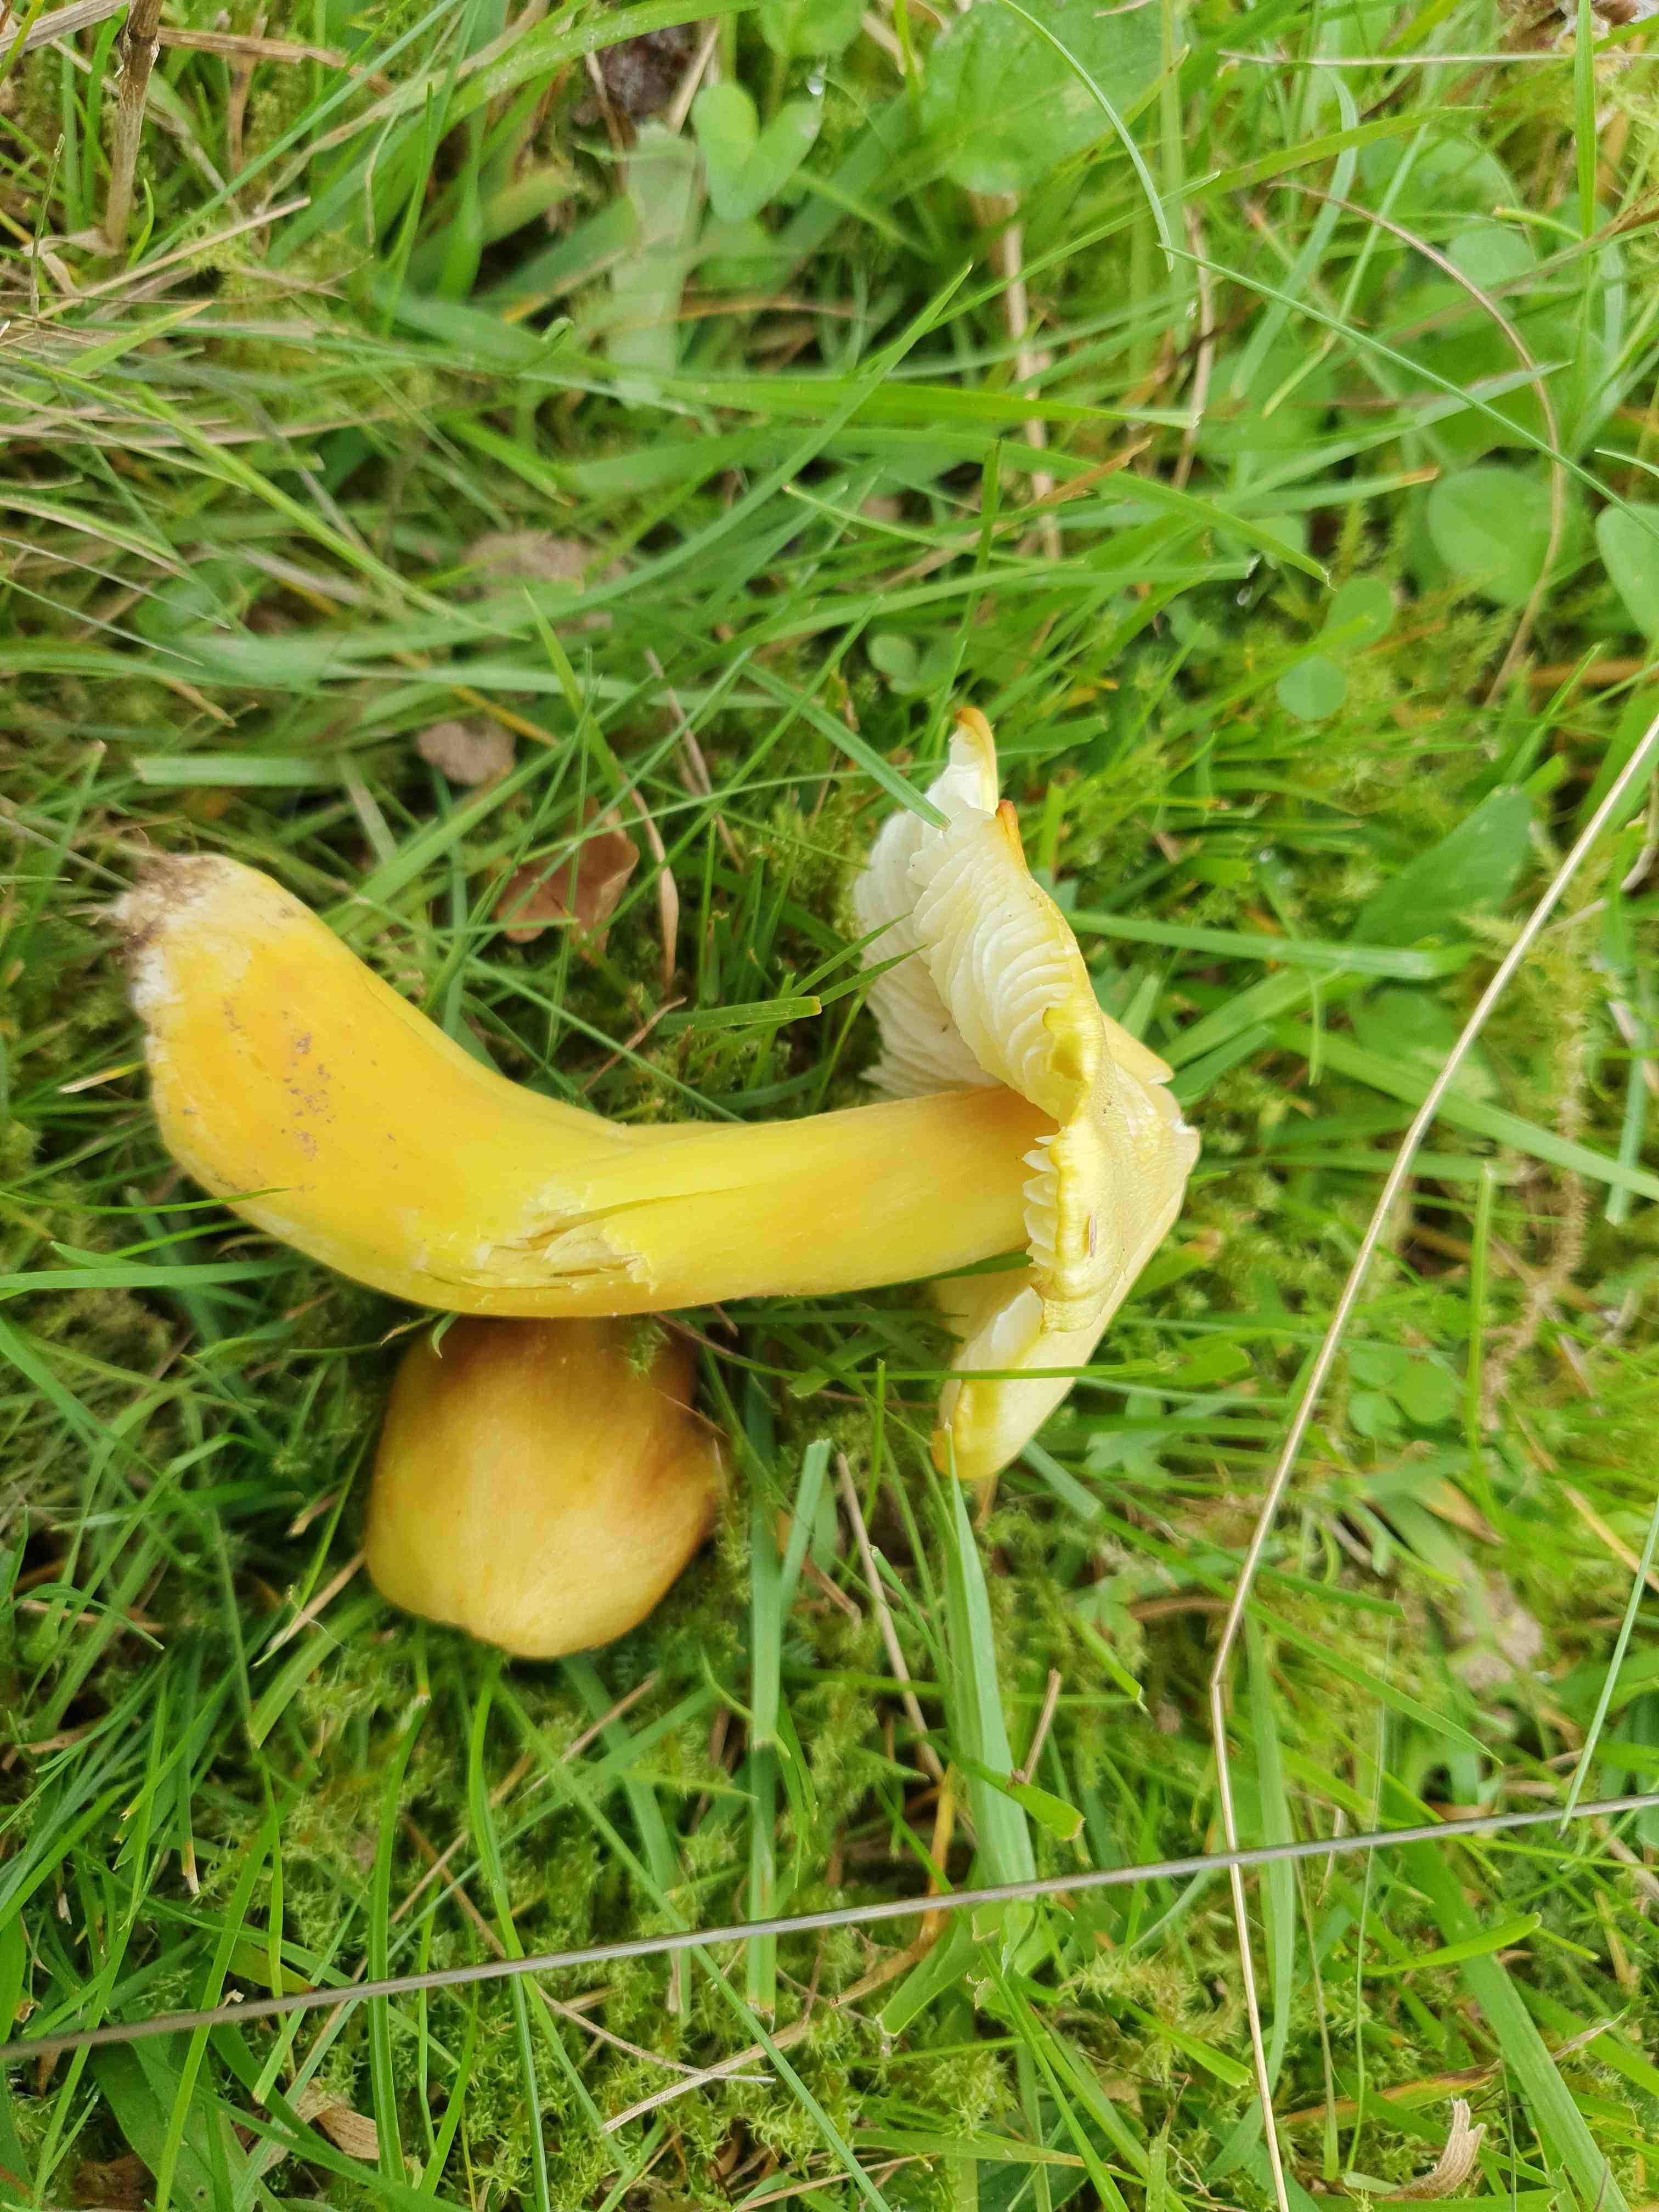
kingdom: Fungi
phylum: Basidiomycota
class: Agaricomycetes
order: Agaricales
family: Hygrophoraceae
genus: Hygrocybe
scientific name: Hygrocybe citrinovirens
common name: grøngul vokshat
